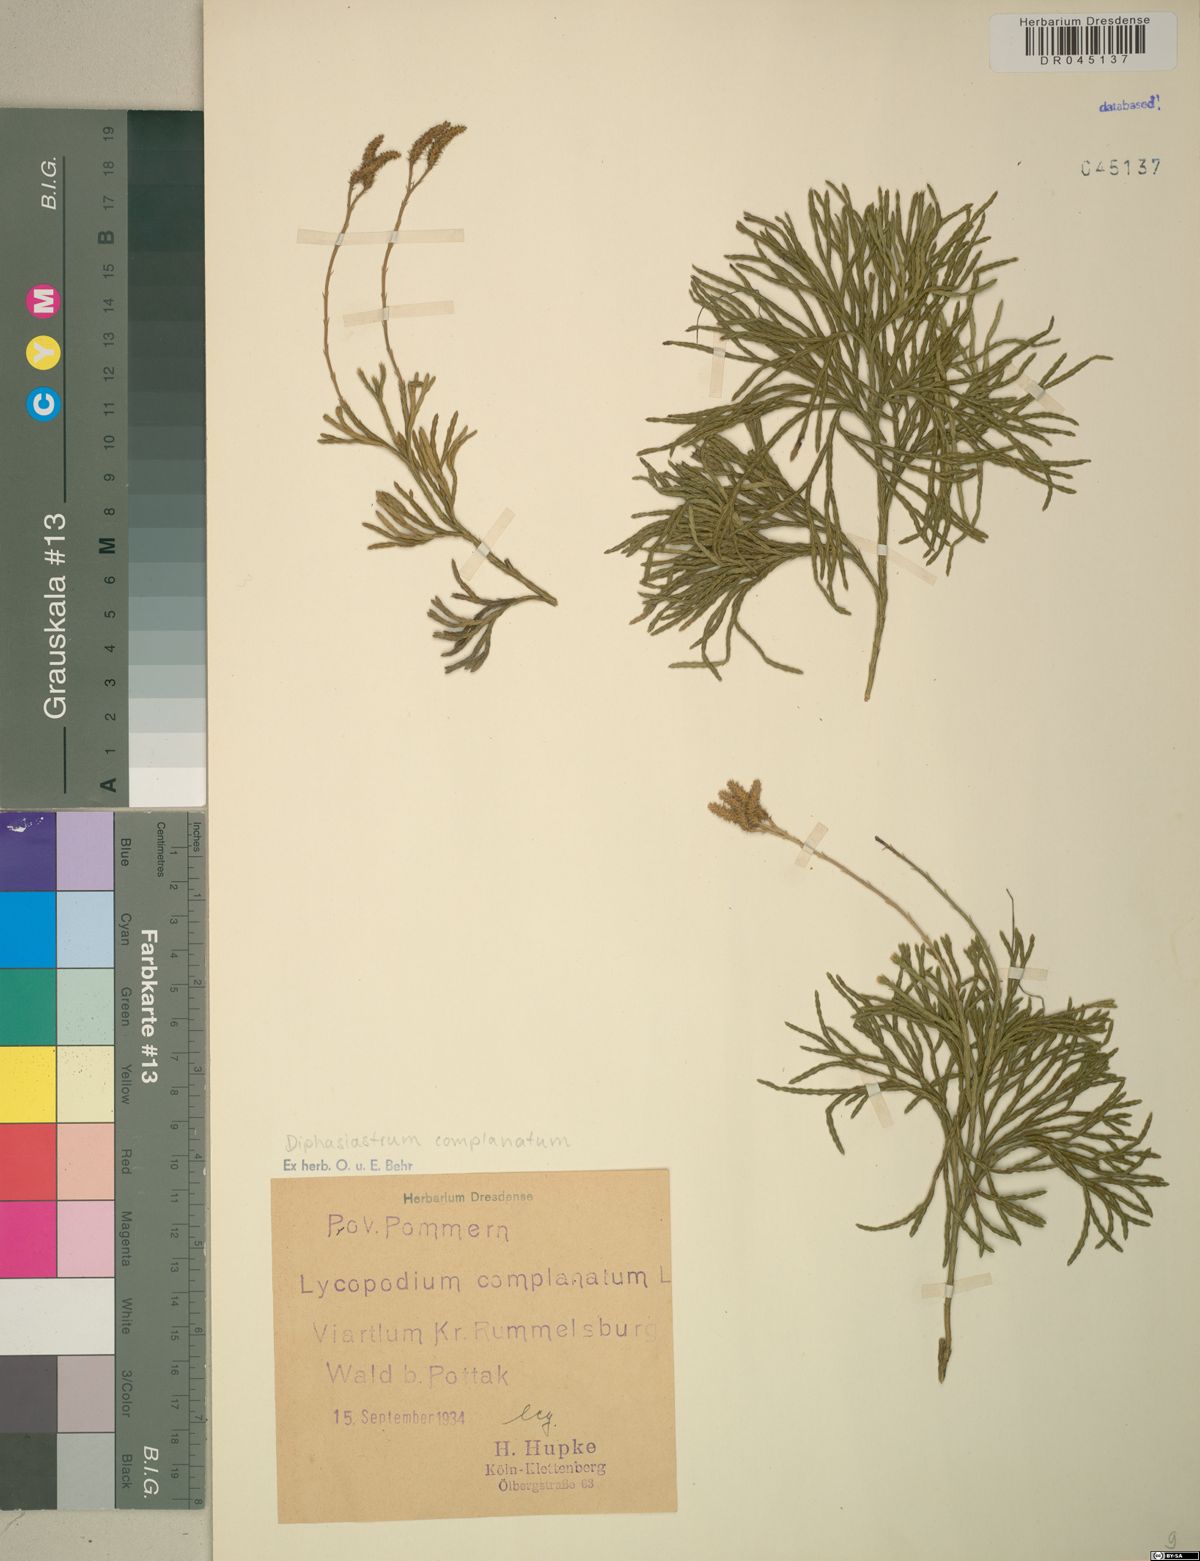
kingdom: Plantae
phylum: Tracheophyta
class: Lycopodiopsida
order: Lycopodiales
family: Lycopodiaceae
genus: Diphasiastrum
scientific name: Diphasiastrum complanatum
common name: Northern running-pine
